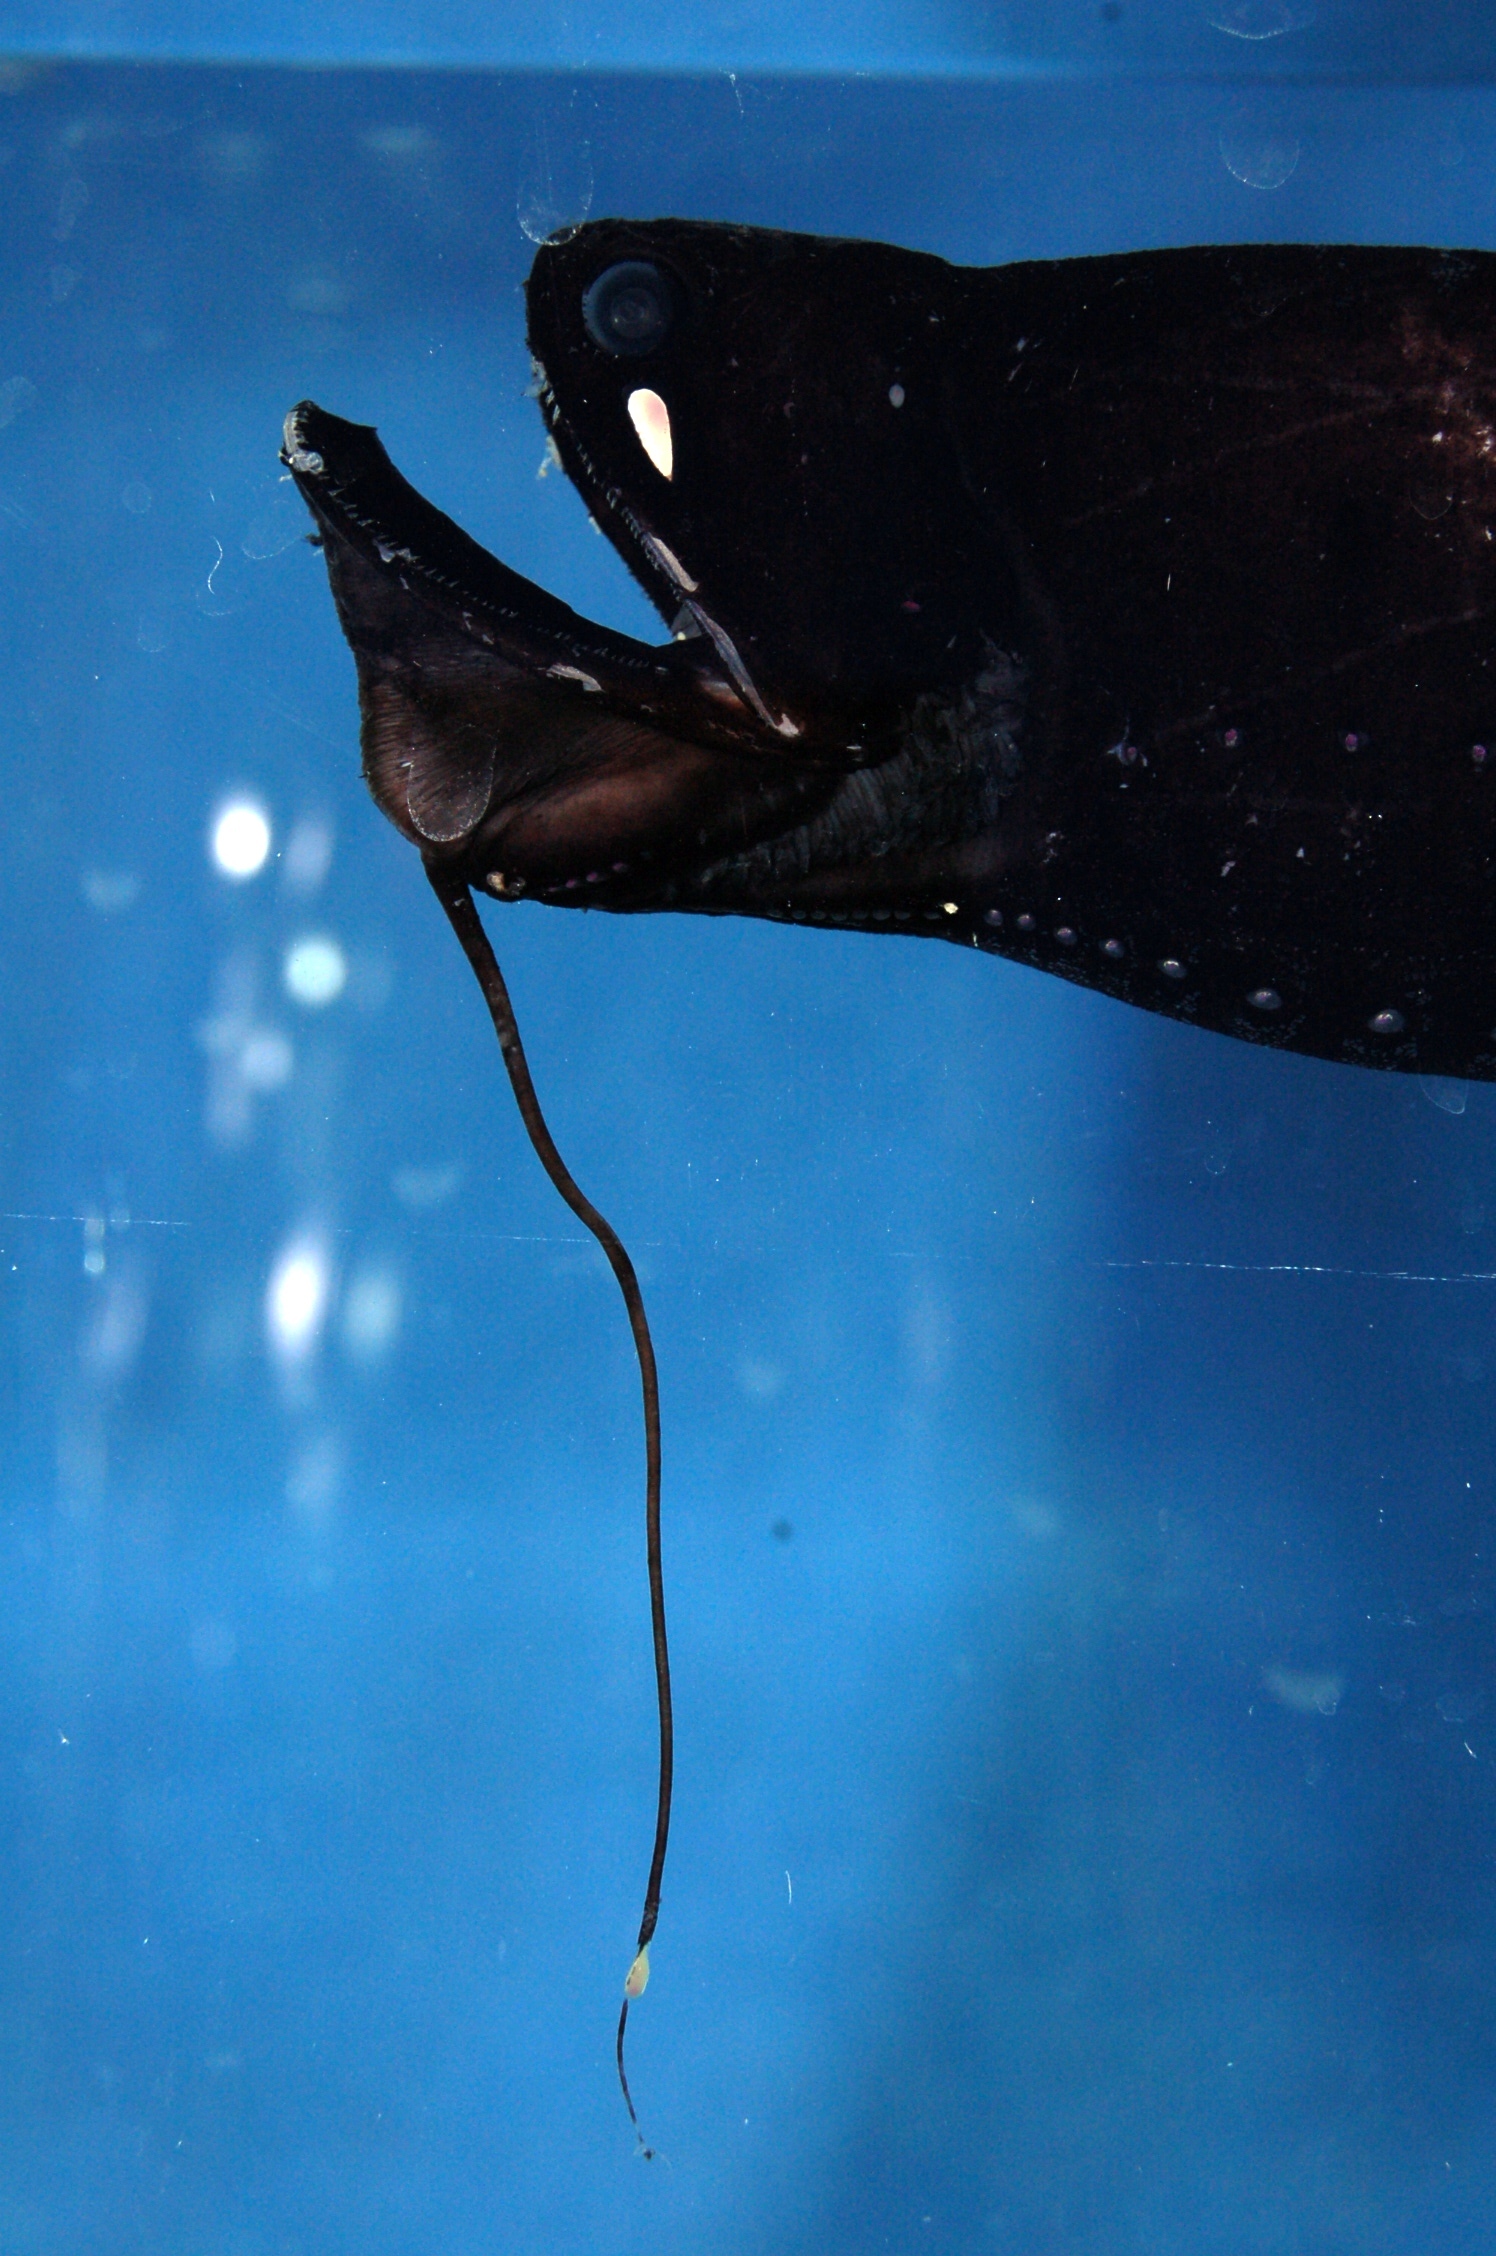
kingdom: Animalia
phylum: Chordata
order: Stomiiformes
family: Stomiidae
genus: Photonectes
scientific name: Photonectes albipennis
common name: Whitepen dragonfish
